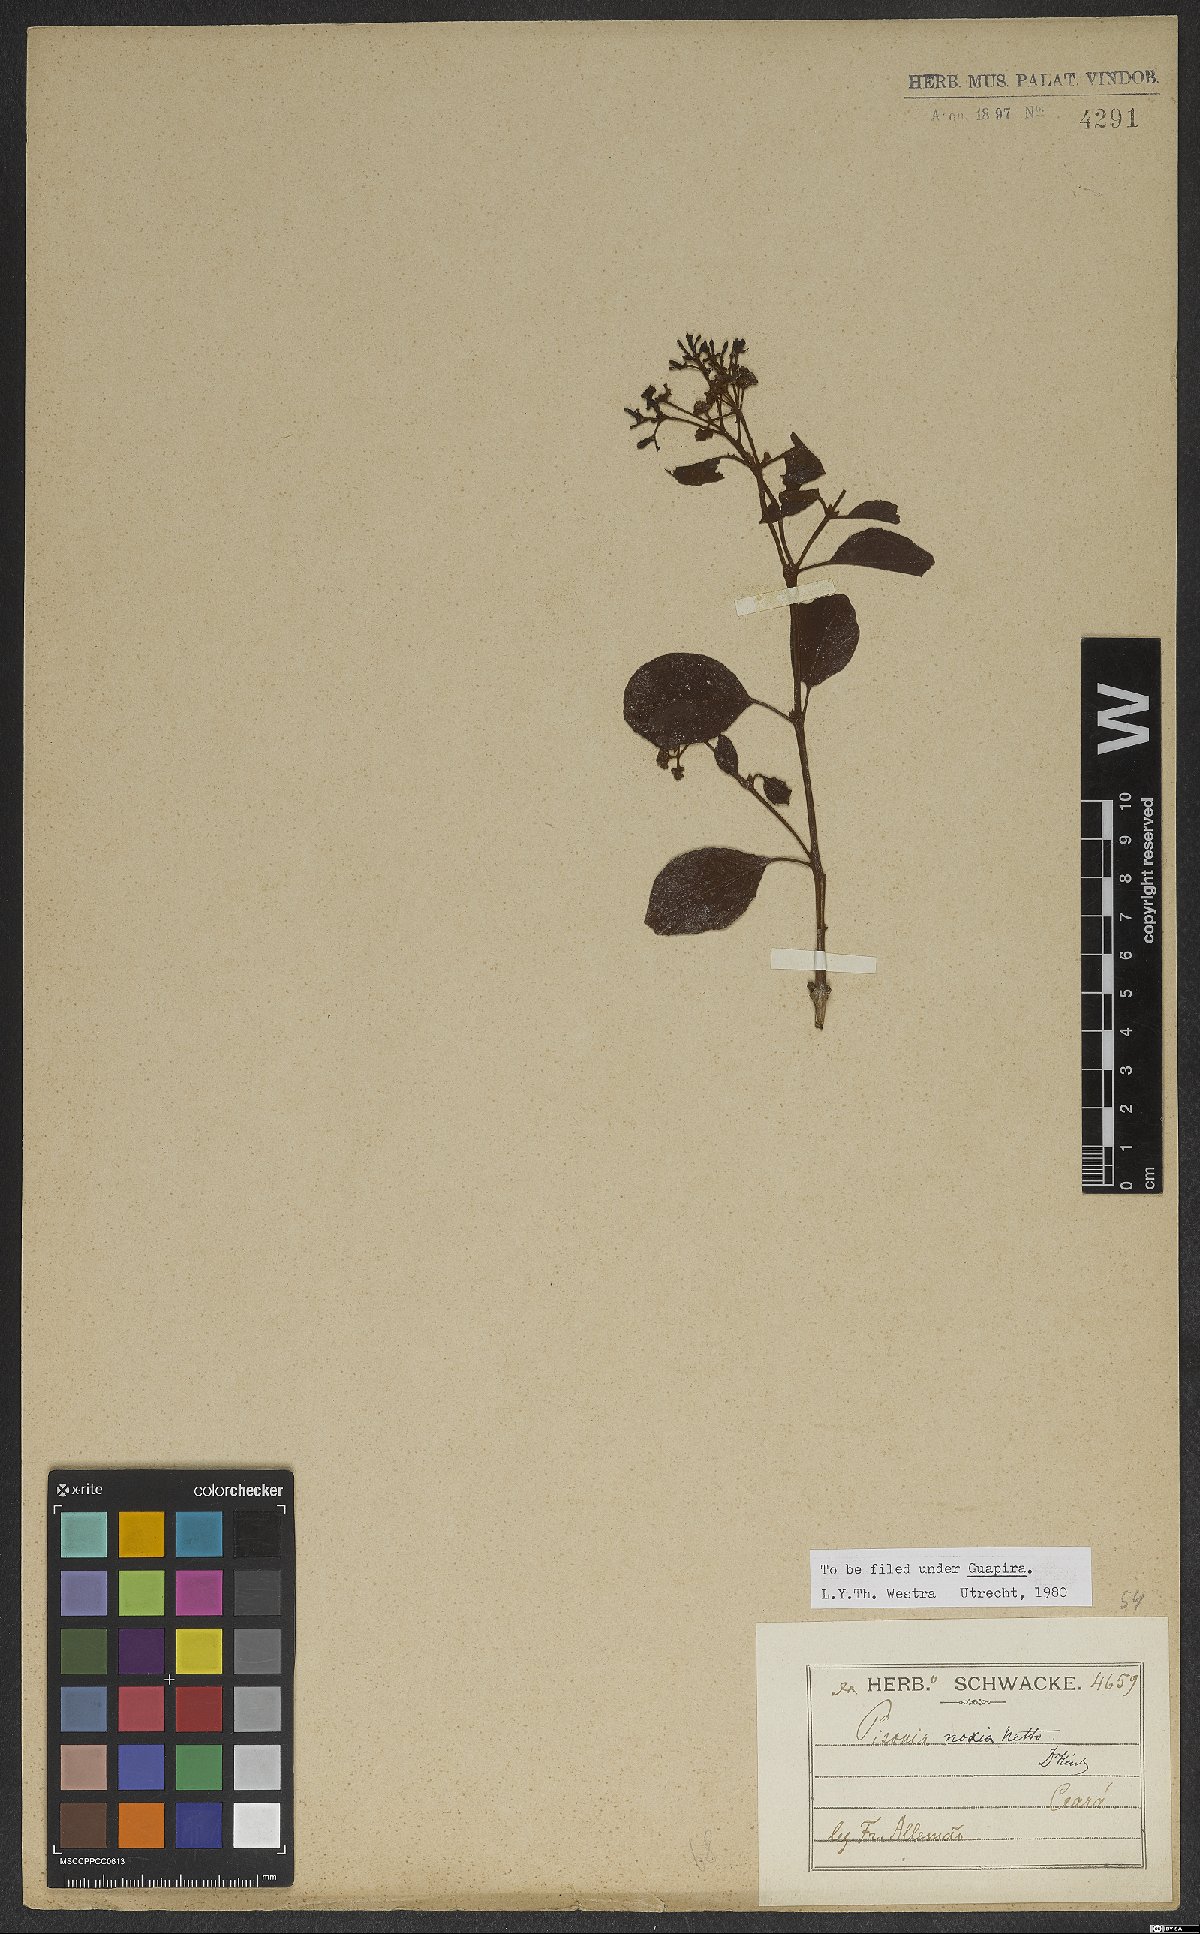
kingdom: Plantae
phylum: Tracheophyta
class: Magnoliopsida
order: Caryophyllales
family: Nyctaginaceae
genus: Guapira
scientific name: Guapira noxia
